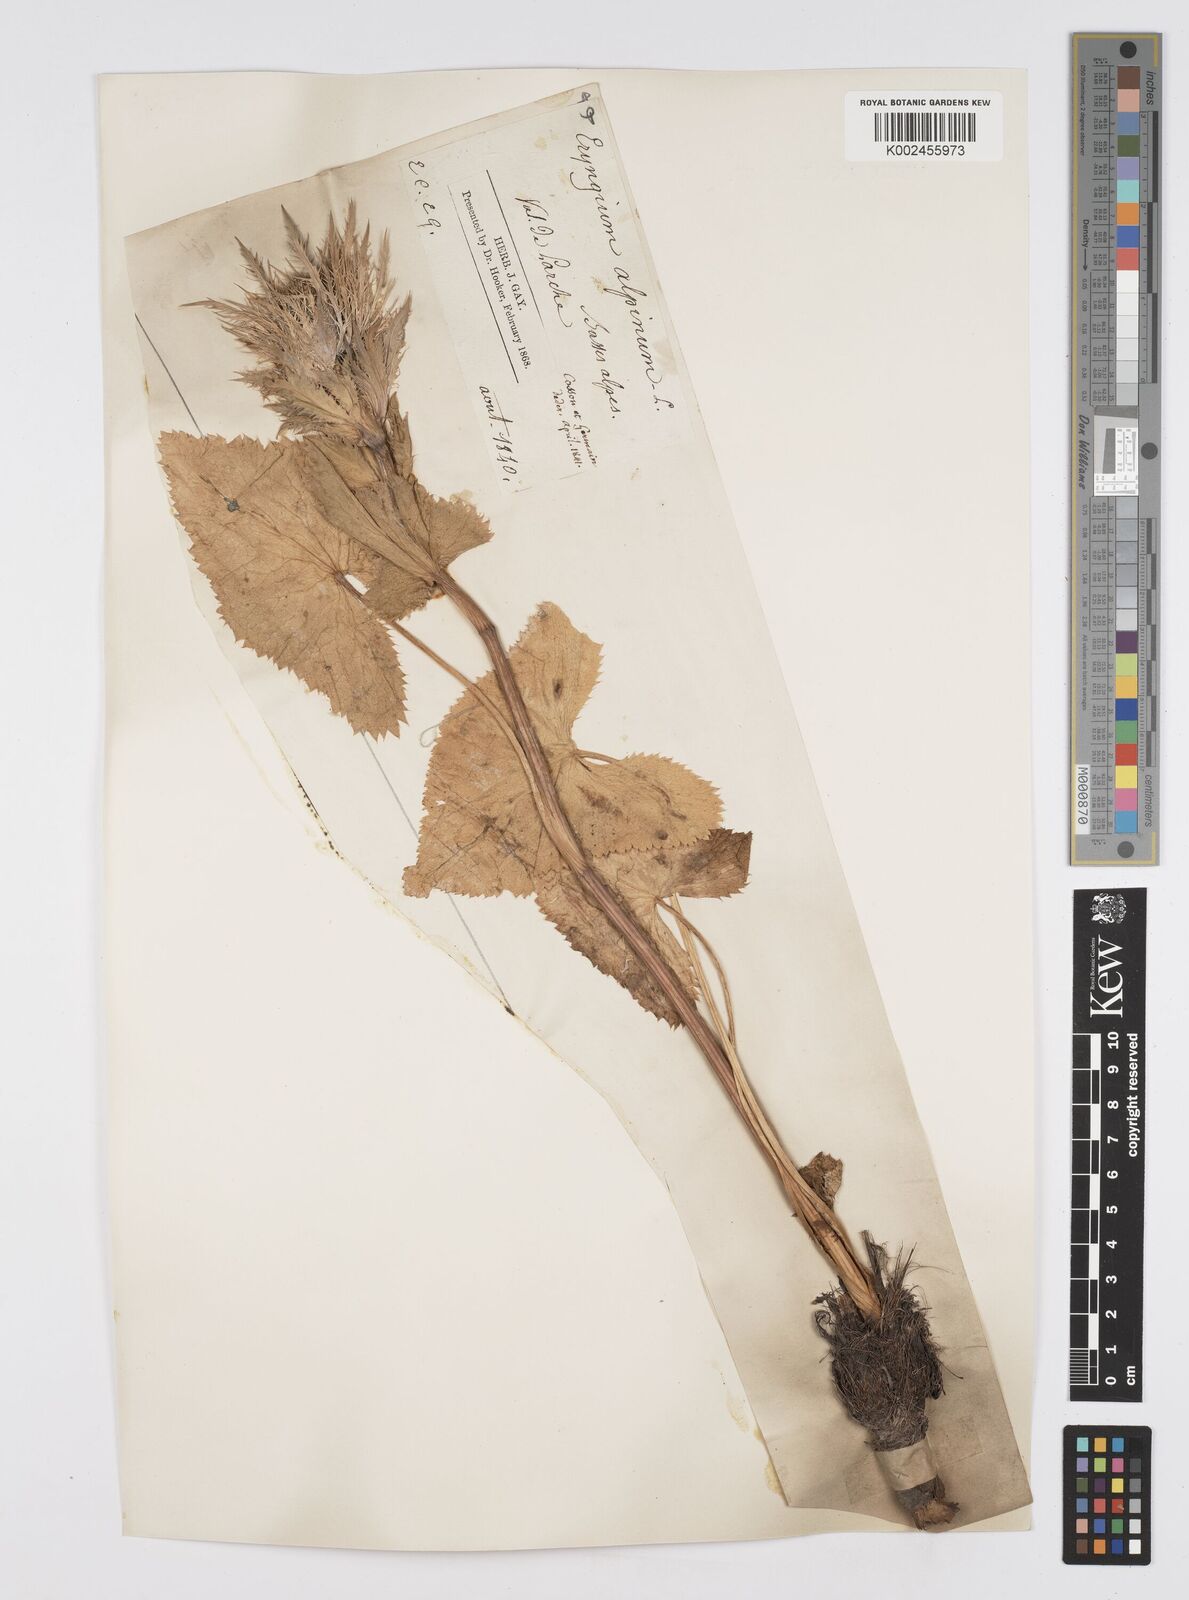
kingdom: Plantae
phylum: Tracheophyta
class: Magnoliopsida
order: Apiales
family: Apiaceae
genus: Eryngium
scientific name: Eryngium alpinum
